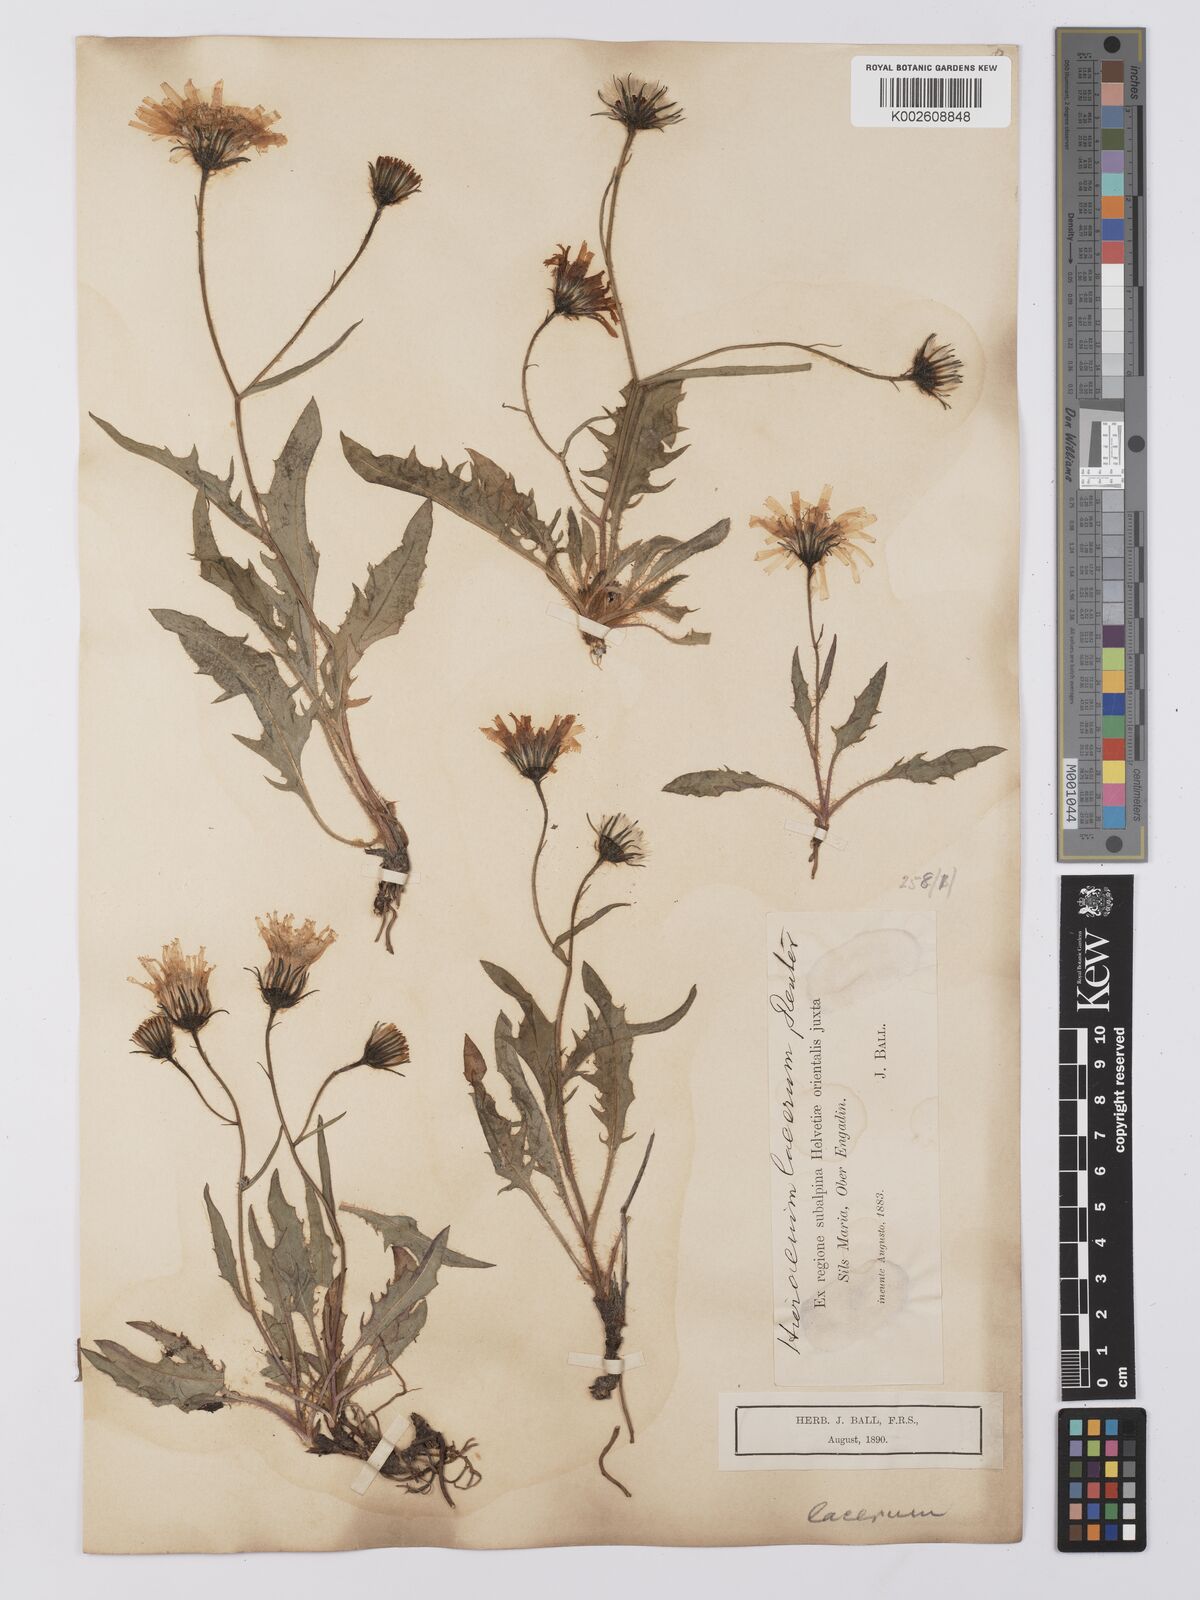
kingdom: Plantae
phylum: Tracheophyta
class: Magnoliopsida
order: Asterales
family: Asteraceae
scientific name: Asteraceae
